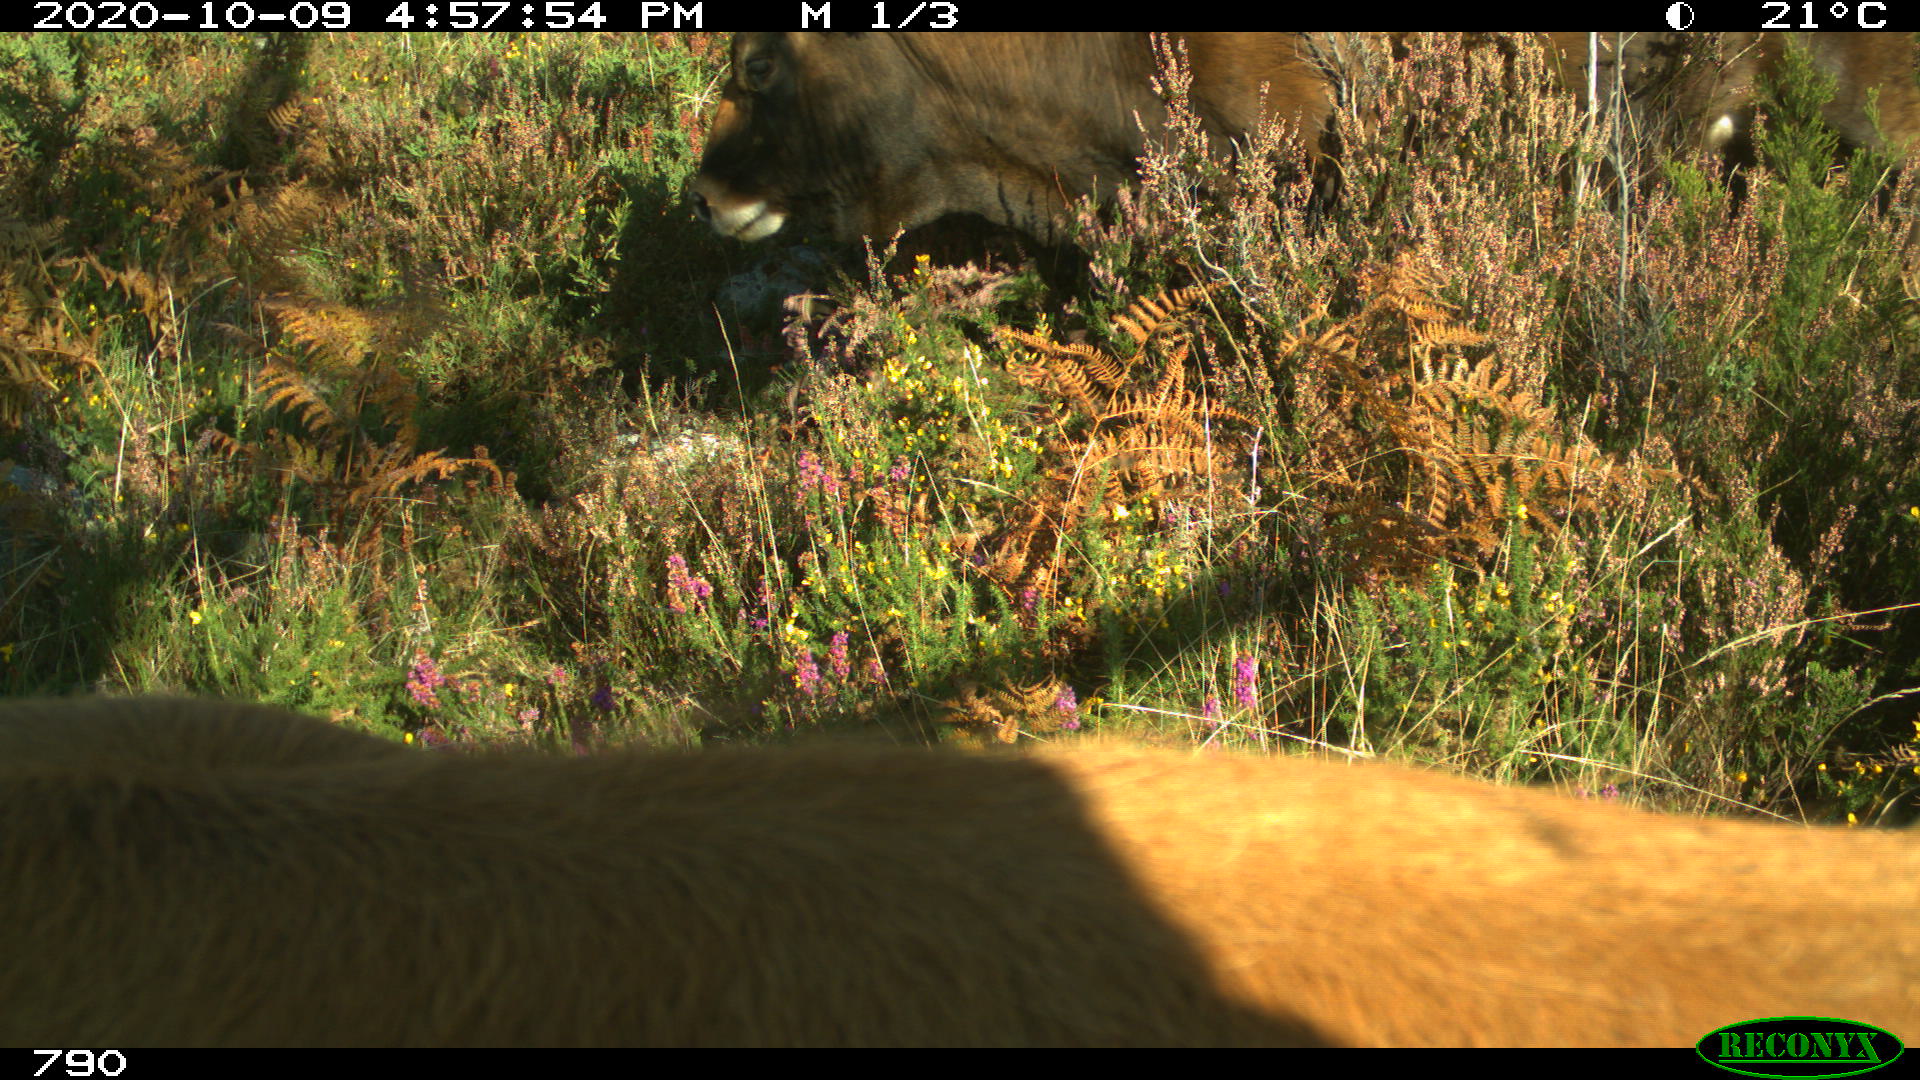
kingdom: Animalia
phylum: Chordata
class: Mammalia
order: Artiodactyla
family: Bovidae
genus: Bos
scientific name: Bos taurus
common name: Domesticated cattle
